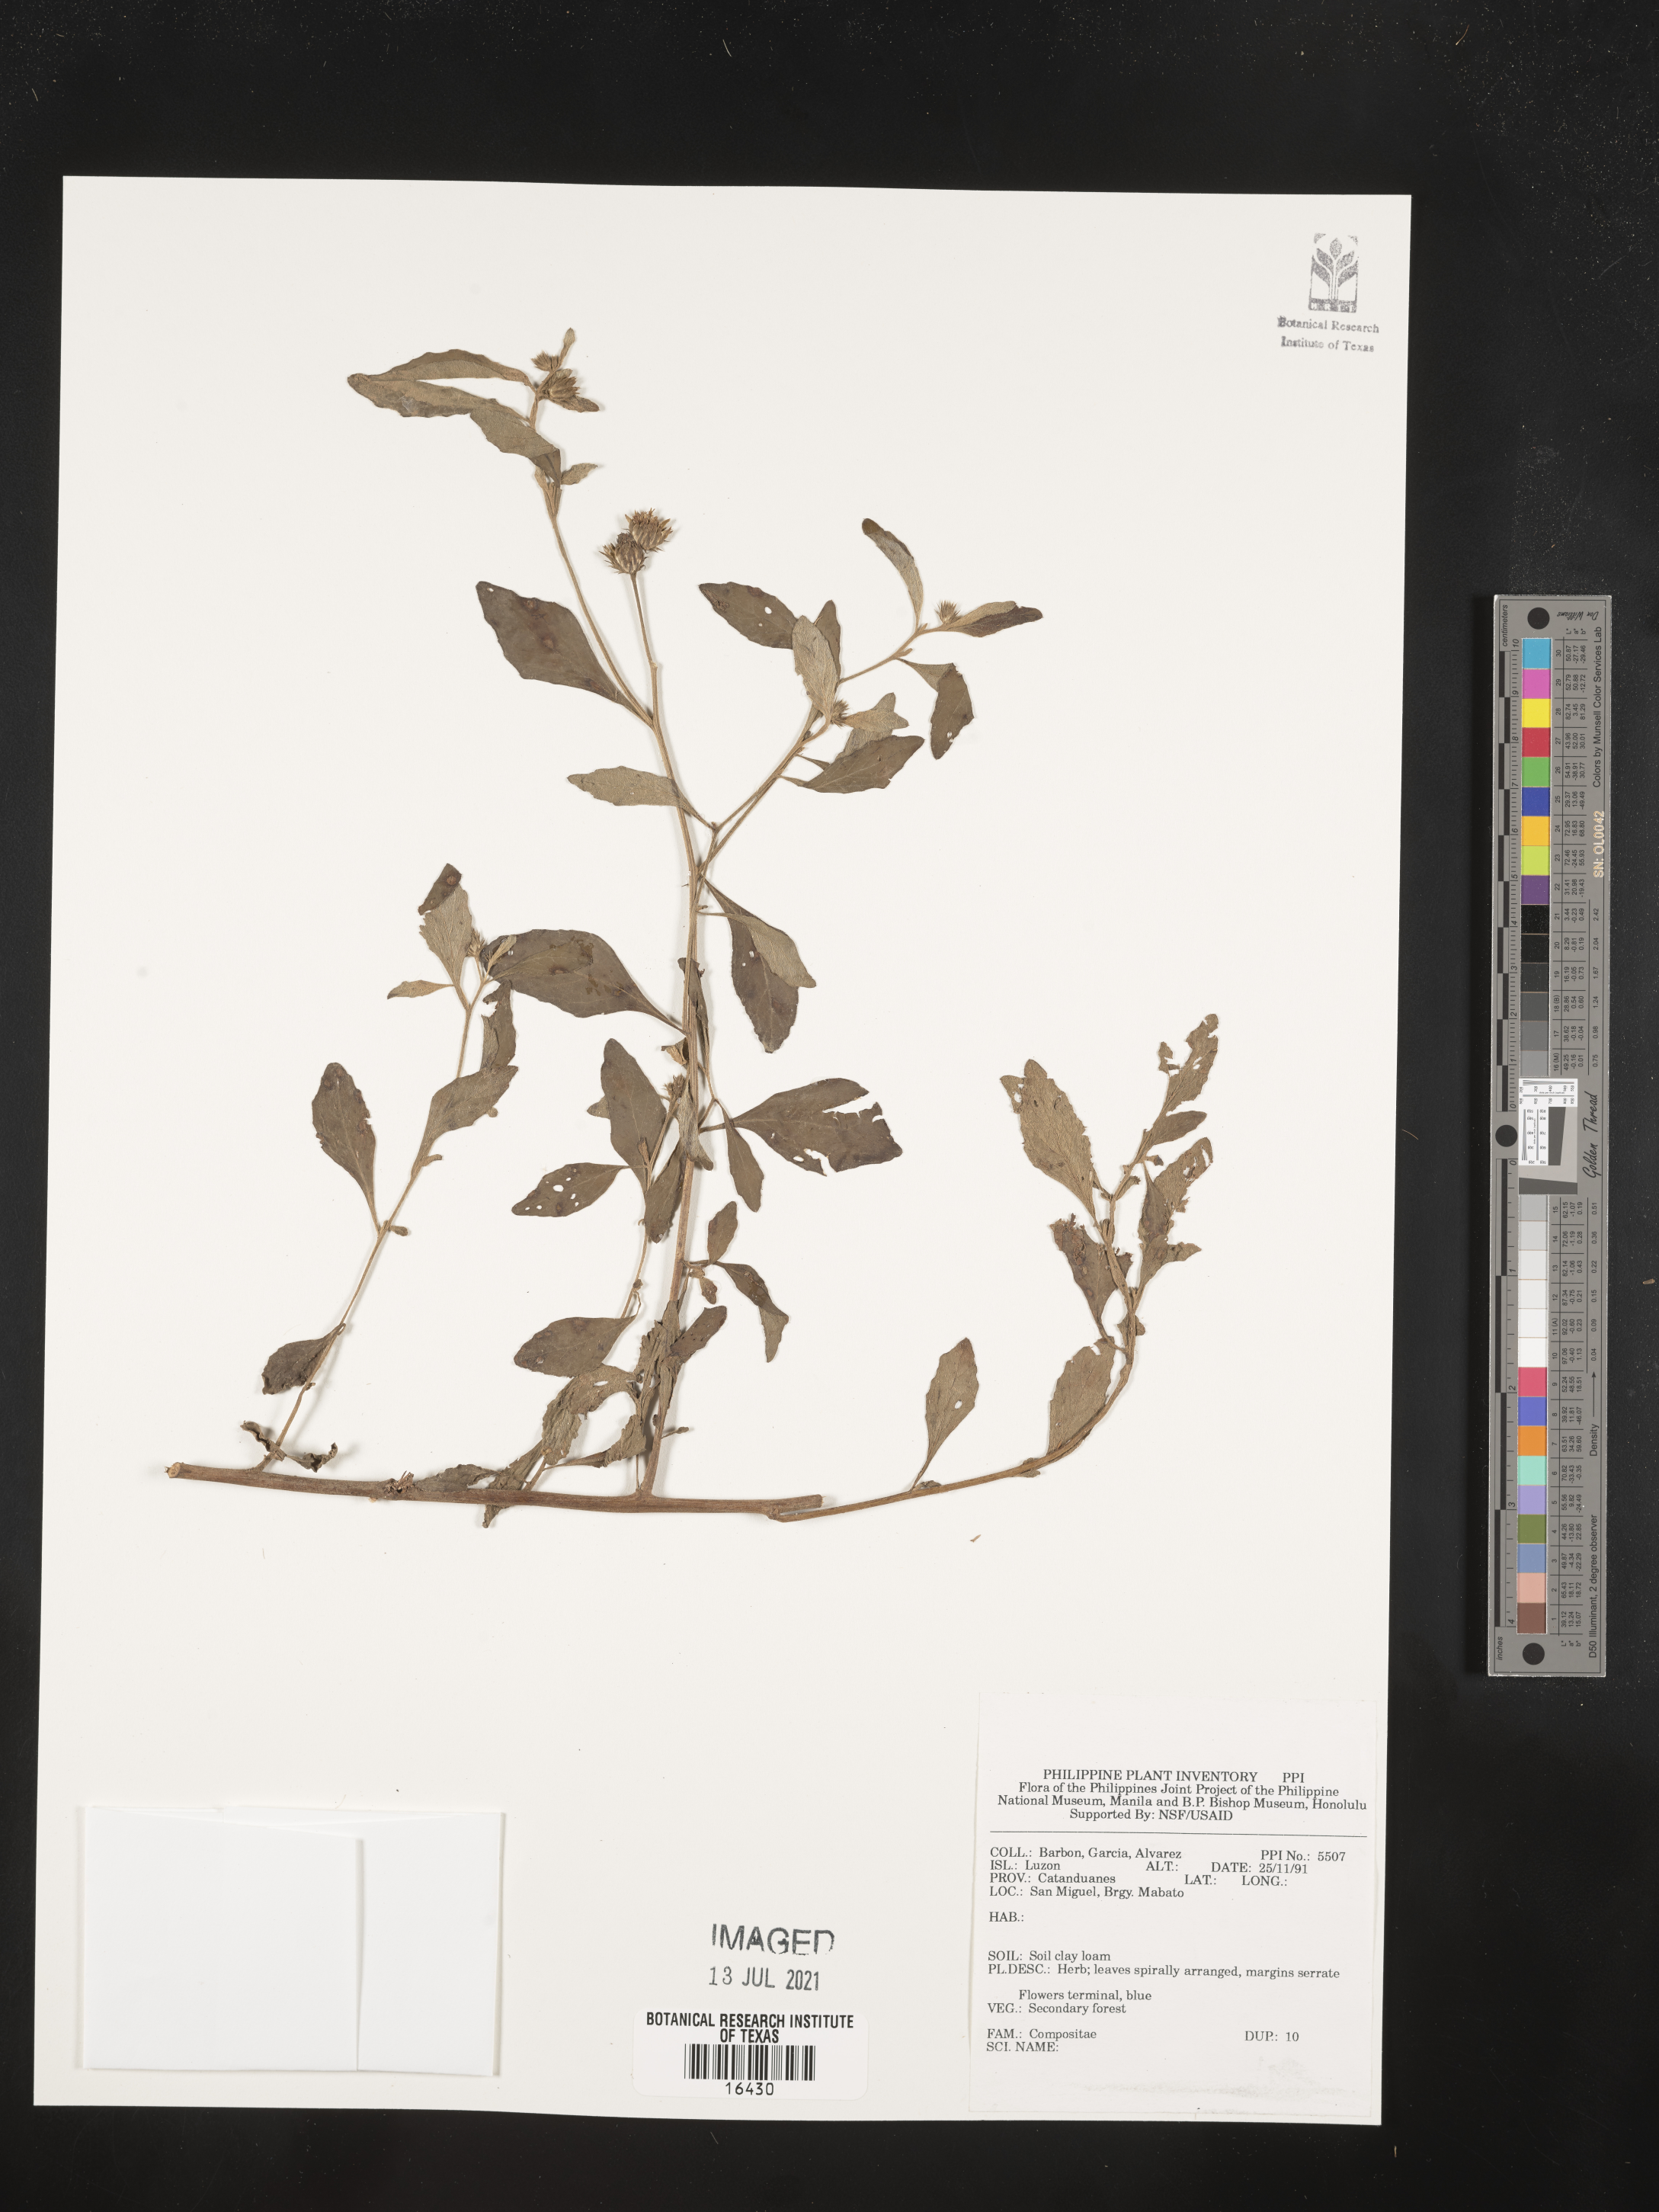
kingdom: Plantae
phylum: Tracheophyta
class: Magnoliopsida
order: Asterales
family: Asteraceae
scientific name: Asteraceae
